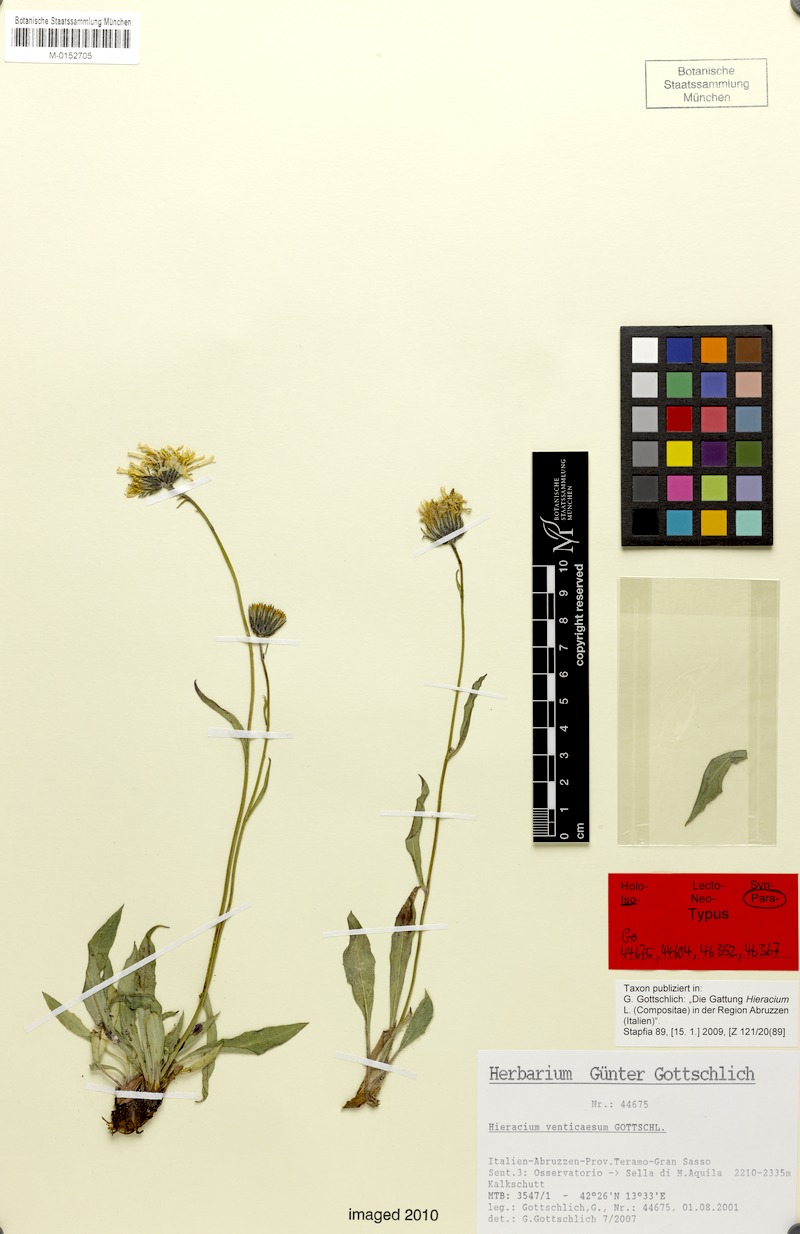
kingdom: Plantae
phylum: Tracheophyta
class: Magnoliopsida
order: Asterales
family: Asteraceae
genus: Hieracium
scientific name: Hieracium venticaesum
